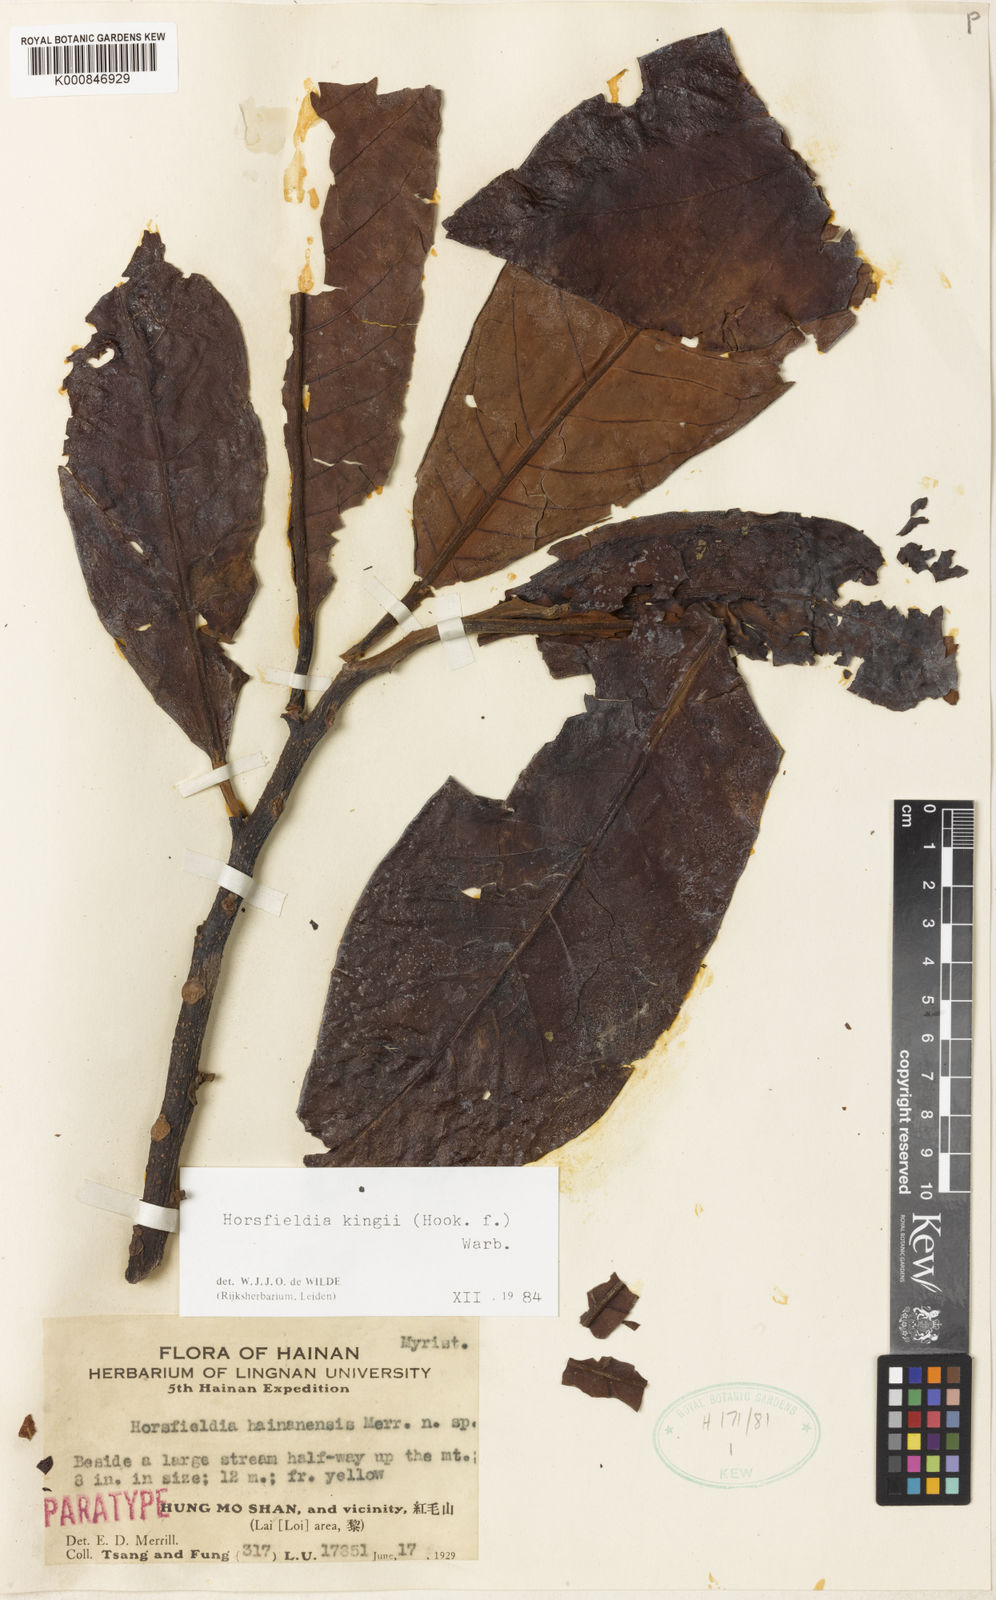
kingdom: Plantae
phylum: Tracheophyta
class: Magnoliopsida
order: Magnoliales
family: Myristicaceae
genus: Horsfieldia
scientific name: Horsfieldia kingii
